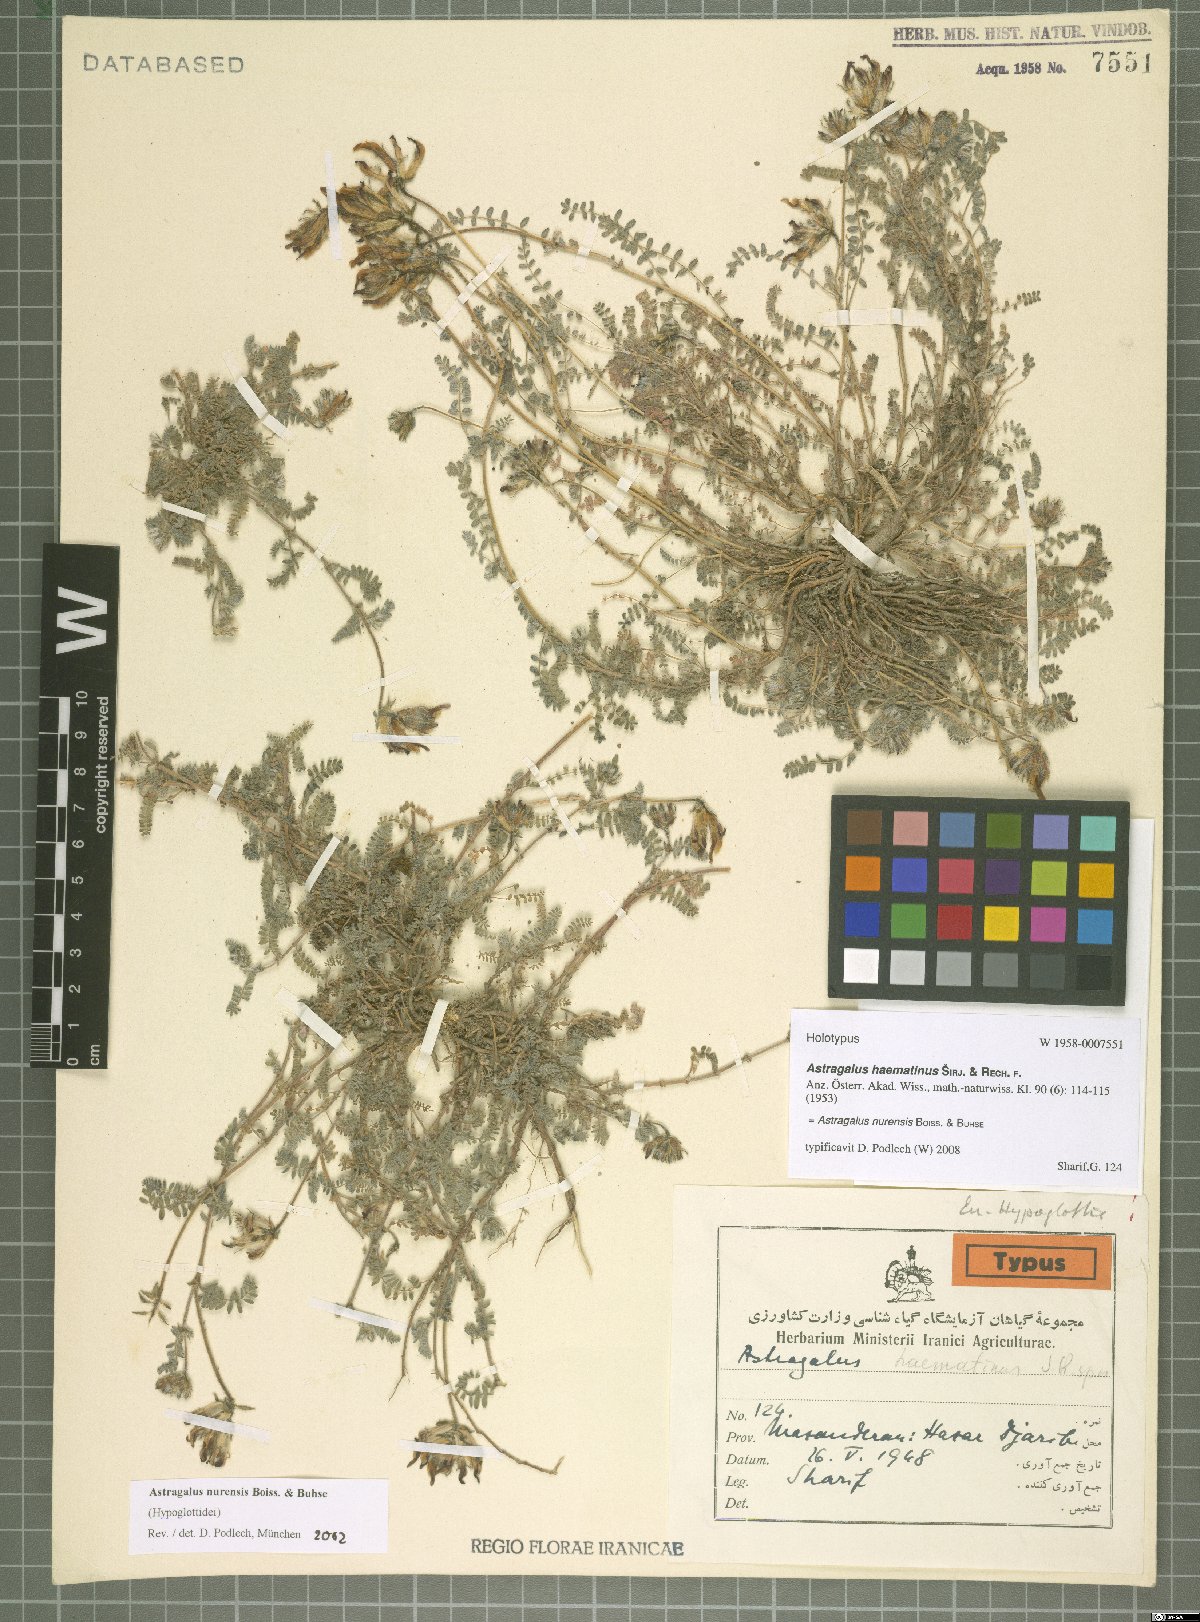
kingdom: Plantae
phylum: Tracheophyta
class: Magnoliopsida
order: Fabales
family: Fabaceae
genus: Astragalus
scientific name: Astragalus nurensis
